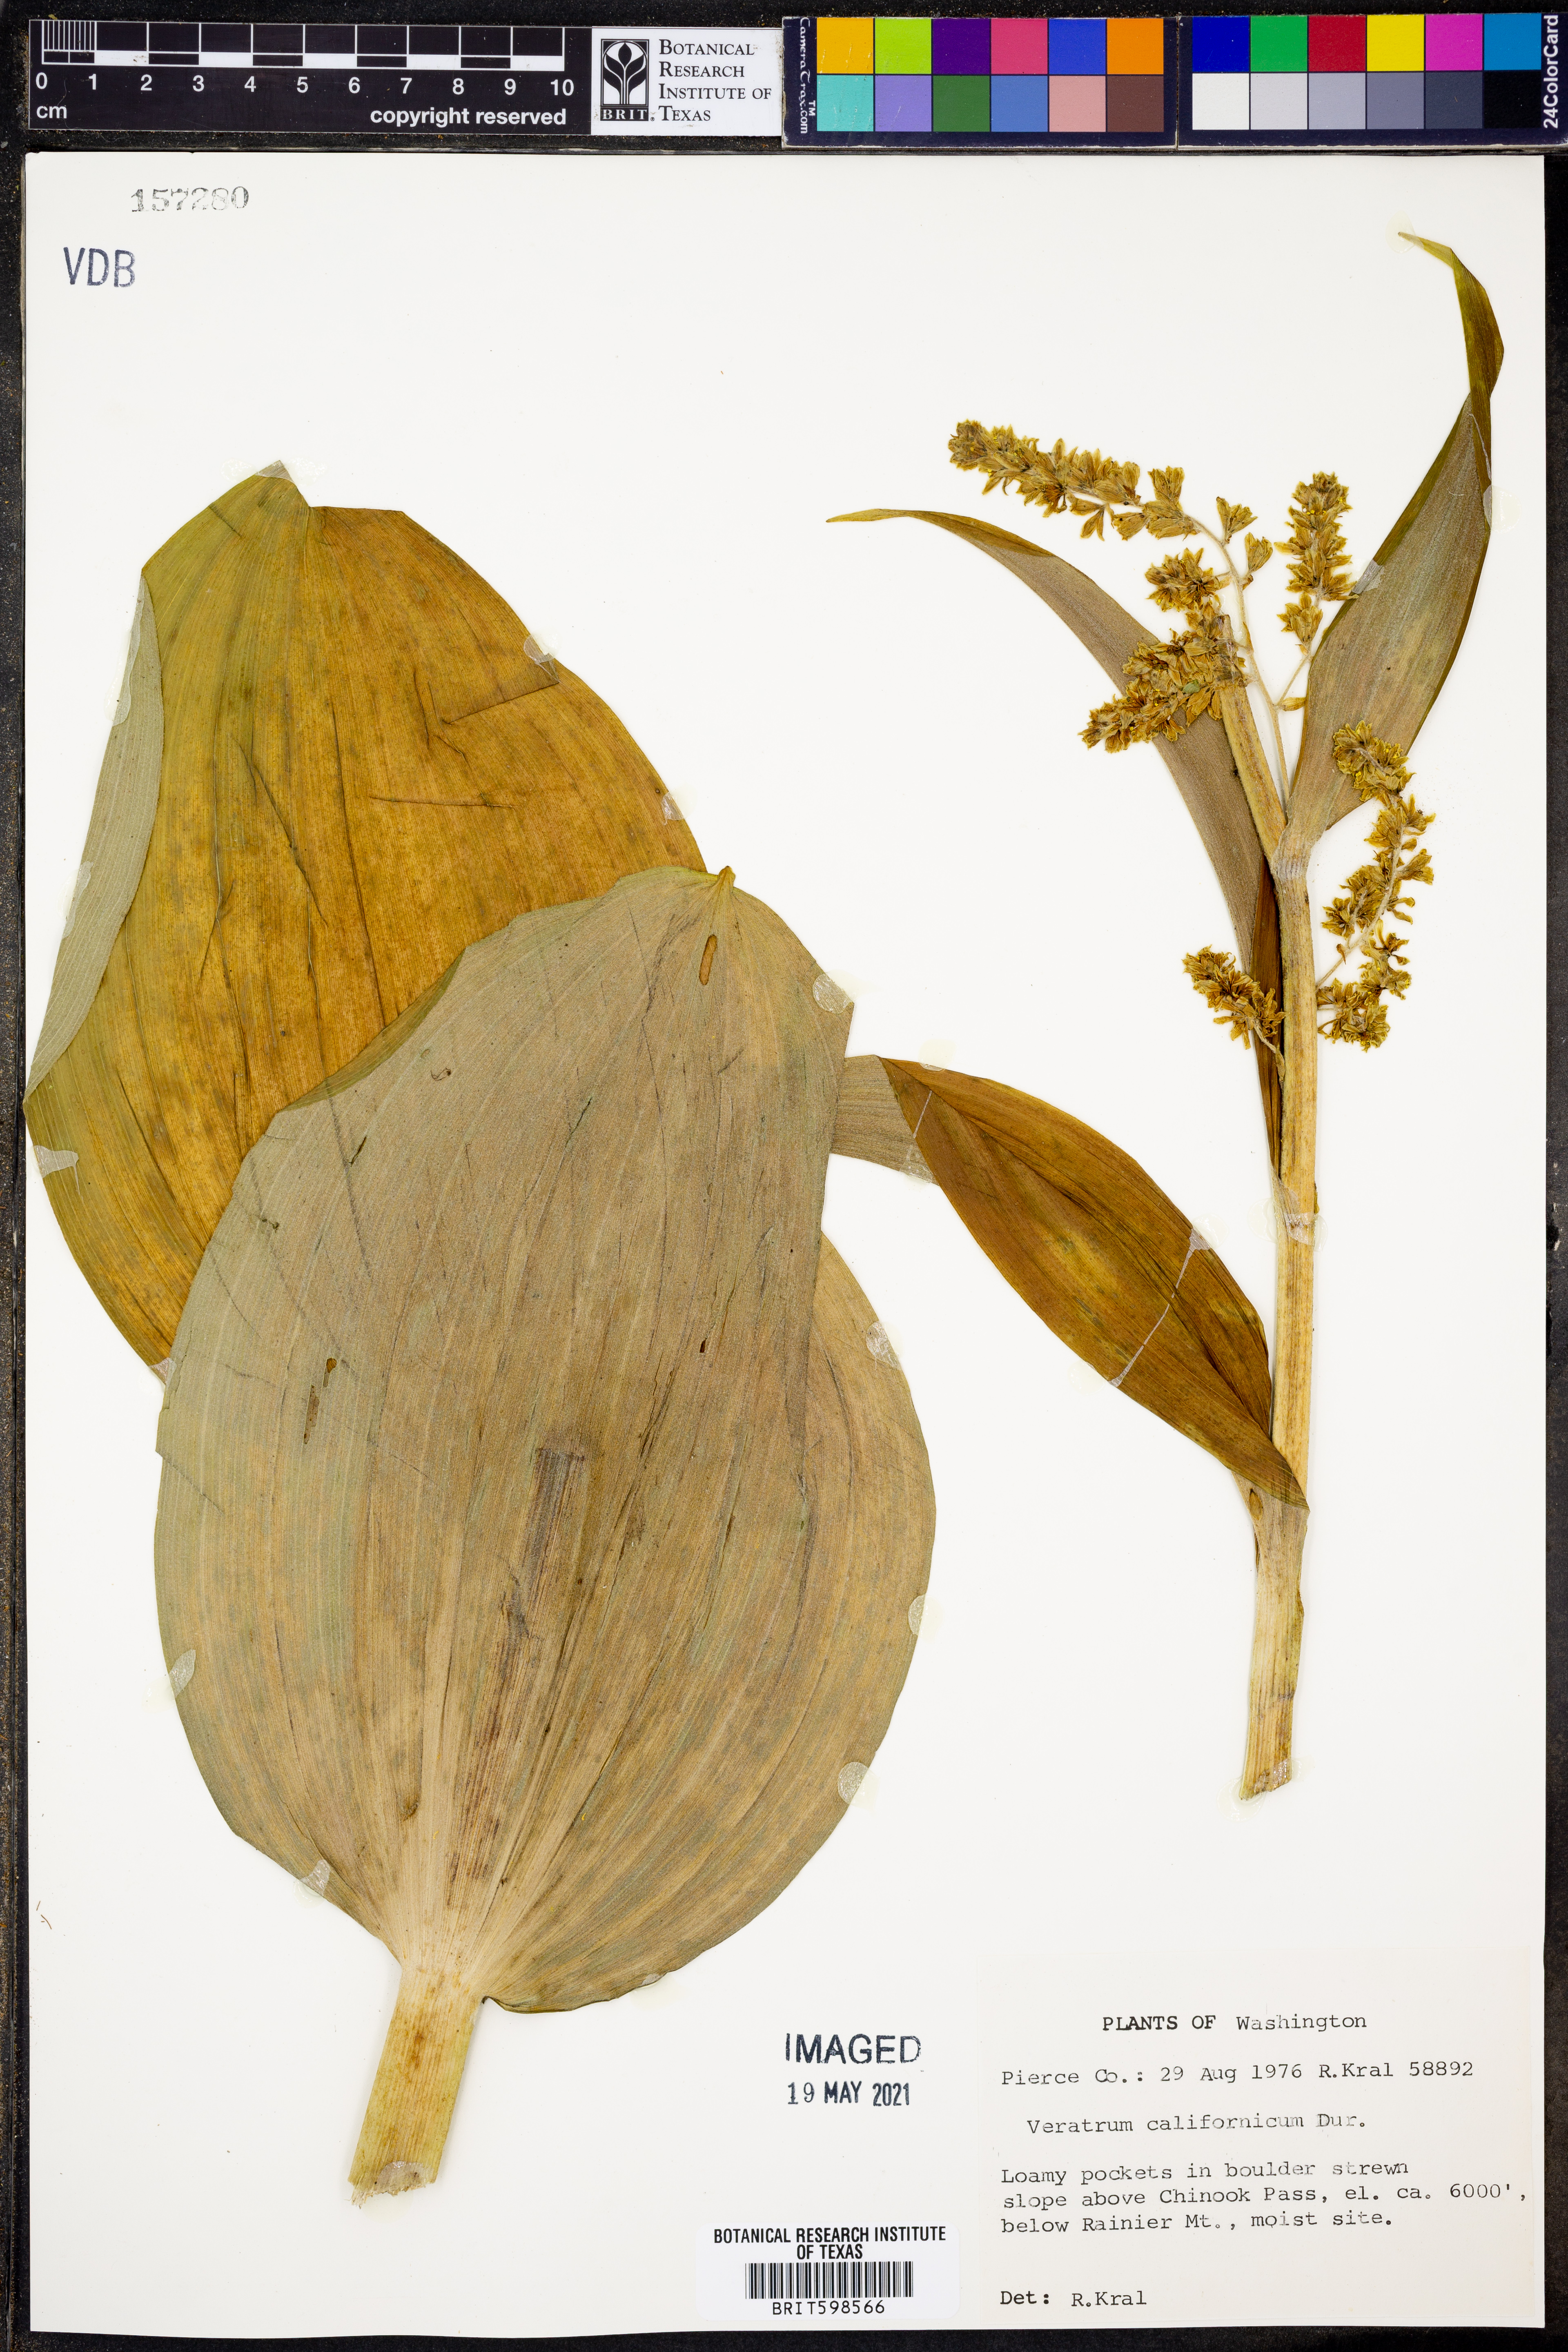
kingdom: Plantae
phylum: Tracheophyta
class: Liliopsida
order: Liliales
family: Melanthiaceae
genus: Veratrum
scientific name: Veratrum californicum
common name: California veratrum
